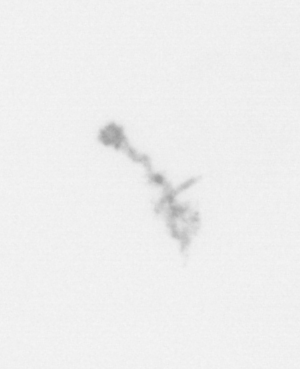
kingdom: Chromista
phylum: Ochrophyta
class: Bacillariophyceae
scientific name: Bacillariophyceae
